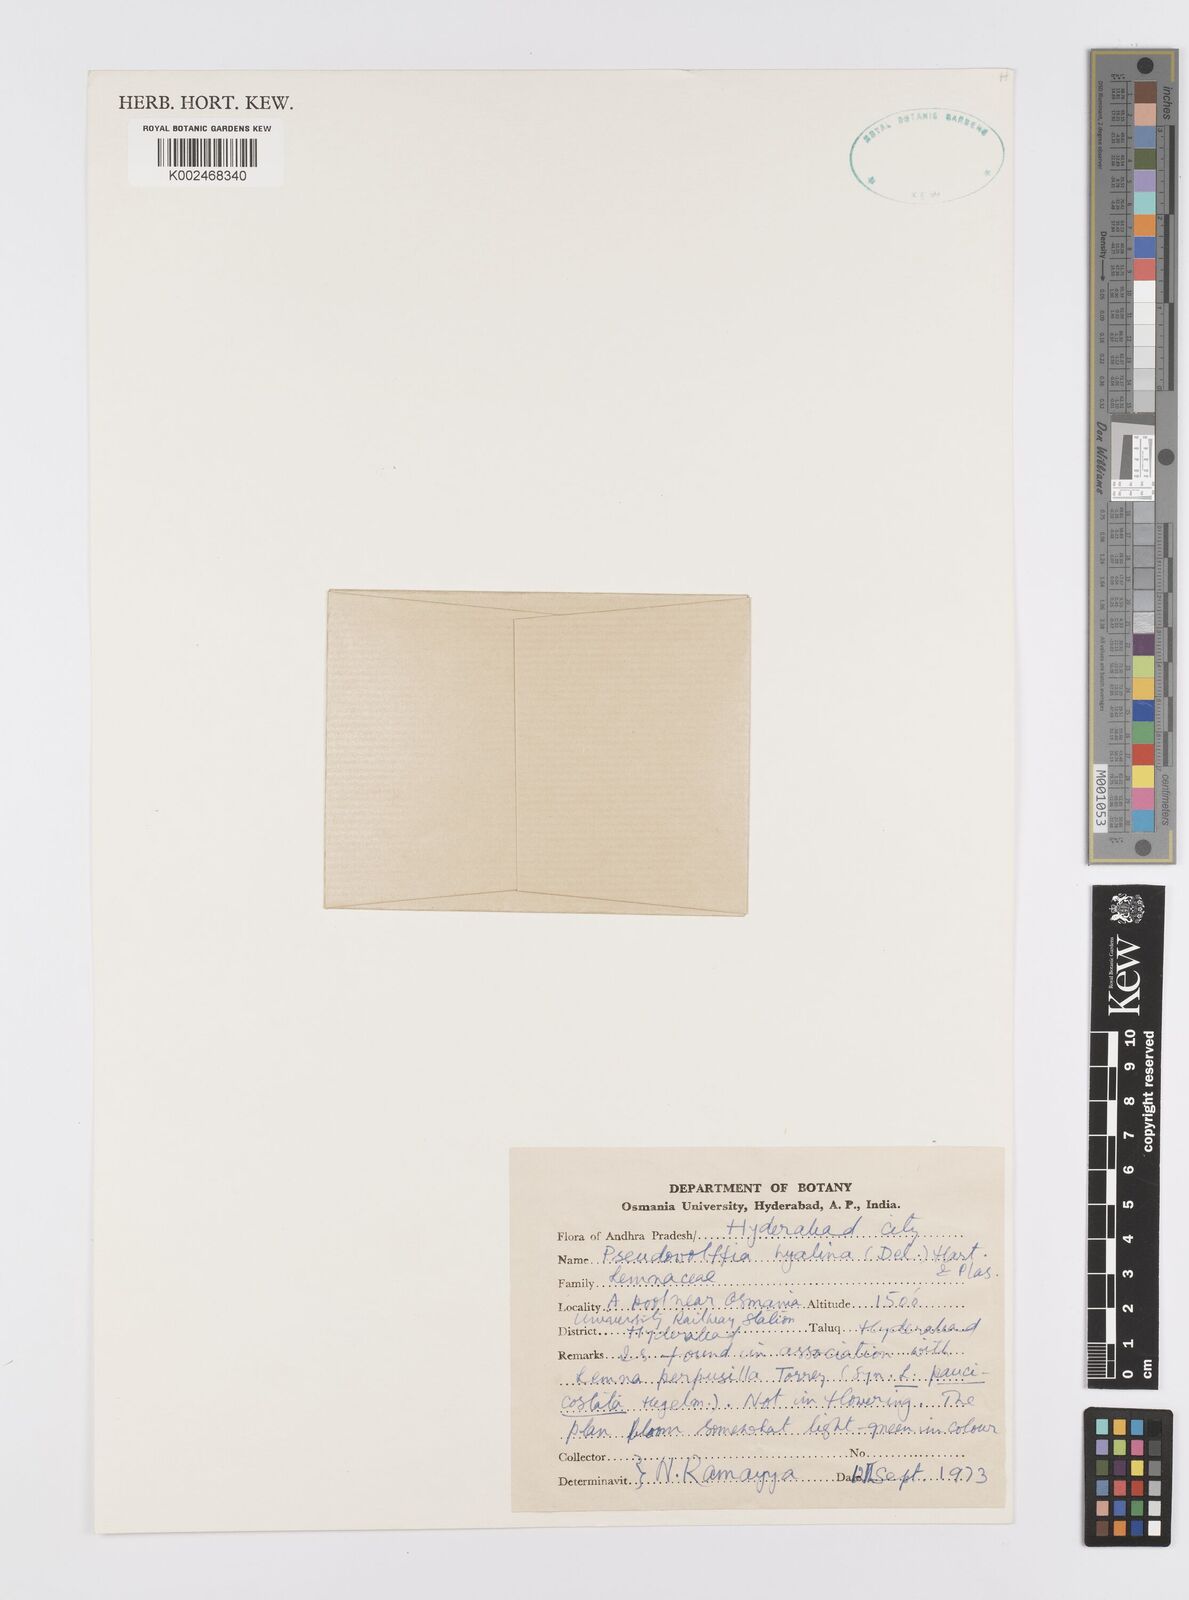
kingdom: Plantae
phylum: Tracheophyta
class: Liliopsida
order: Alismatales
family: Araceae
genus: Wolffiella
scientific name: Wolffiella hyalina
